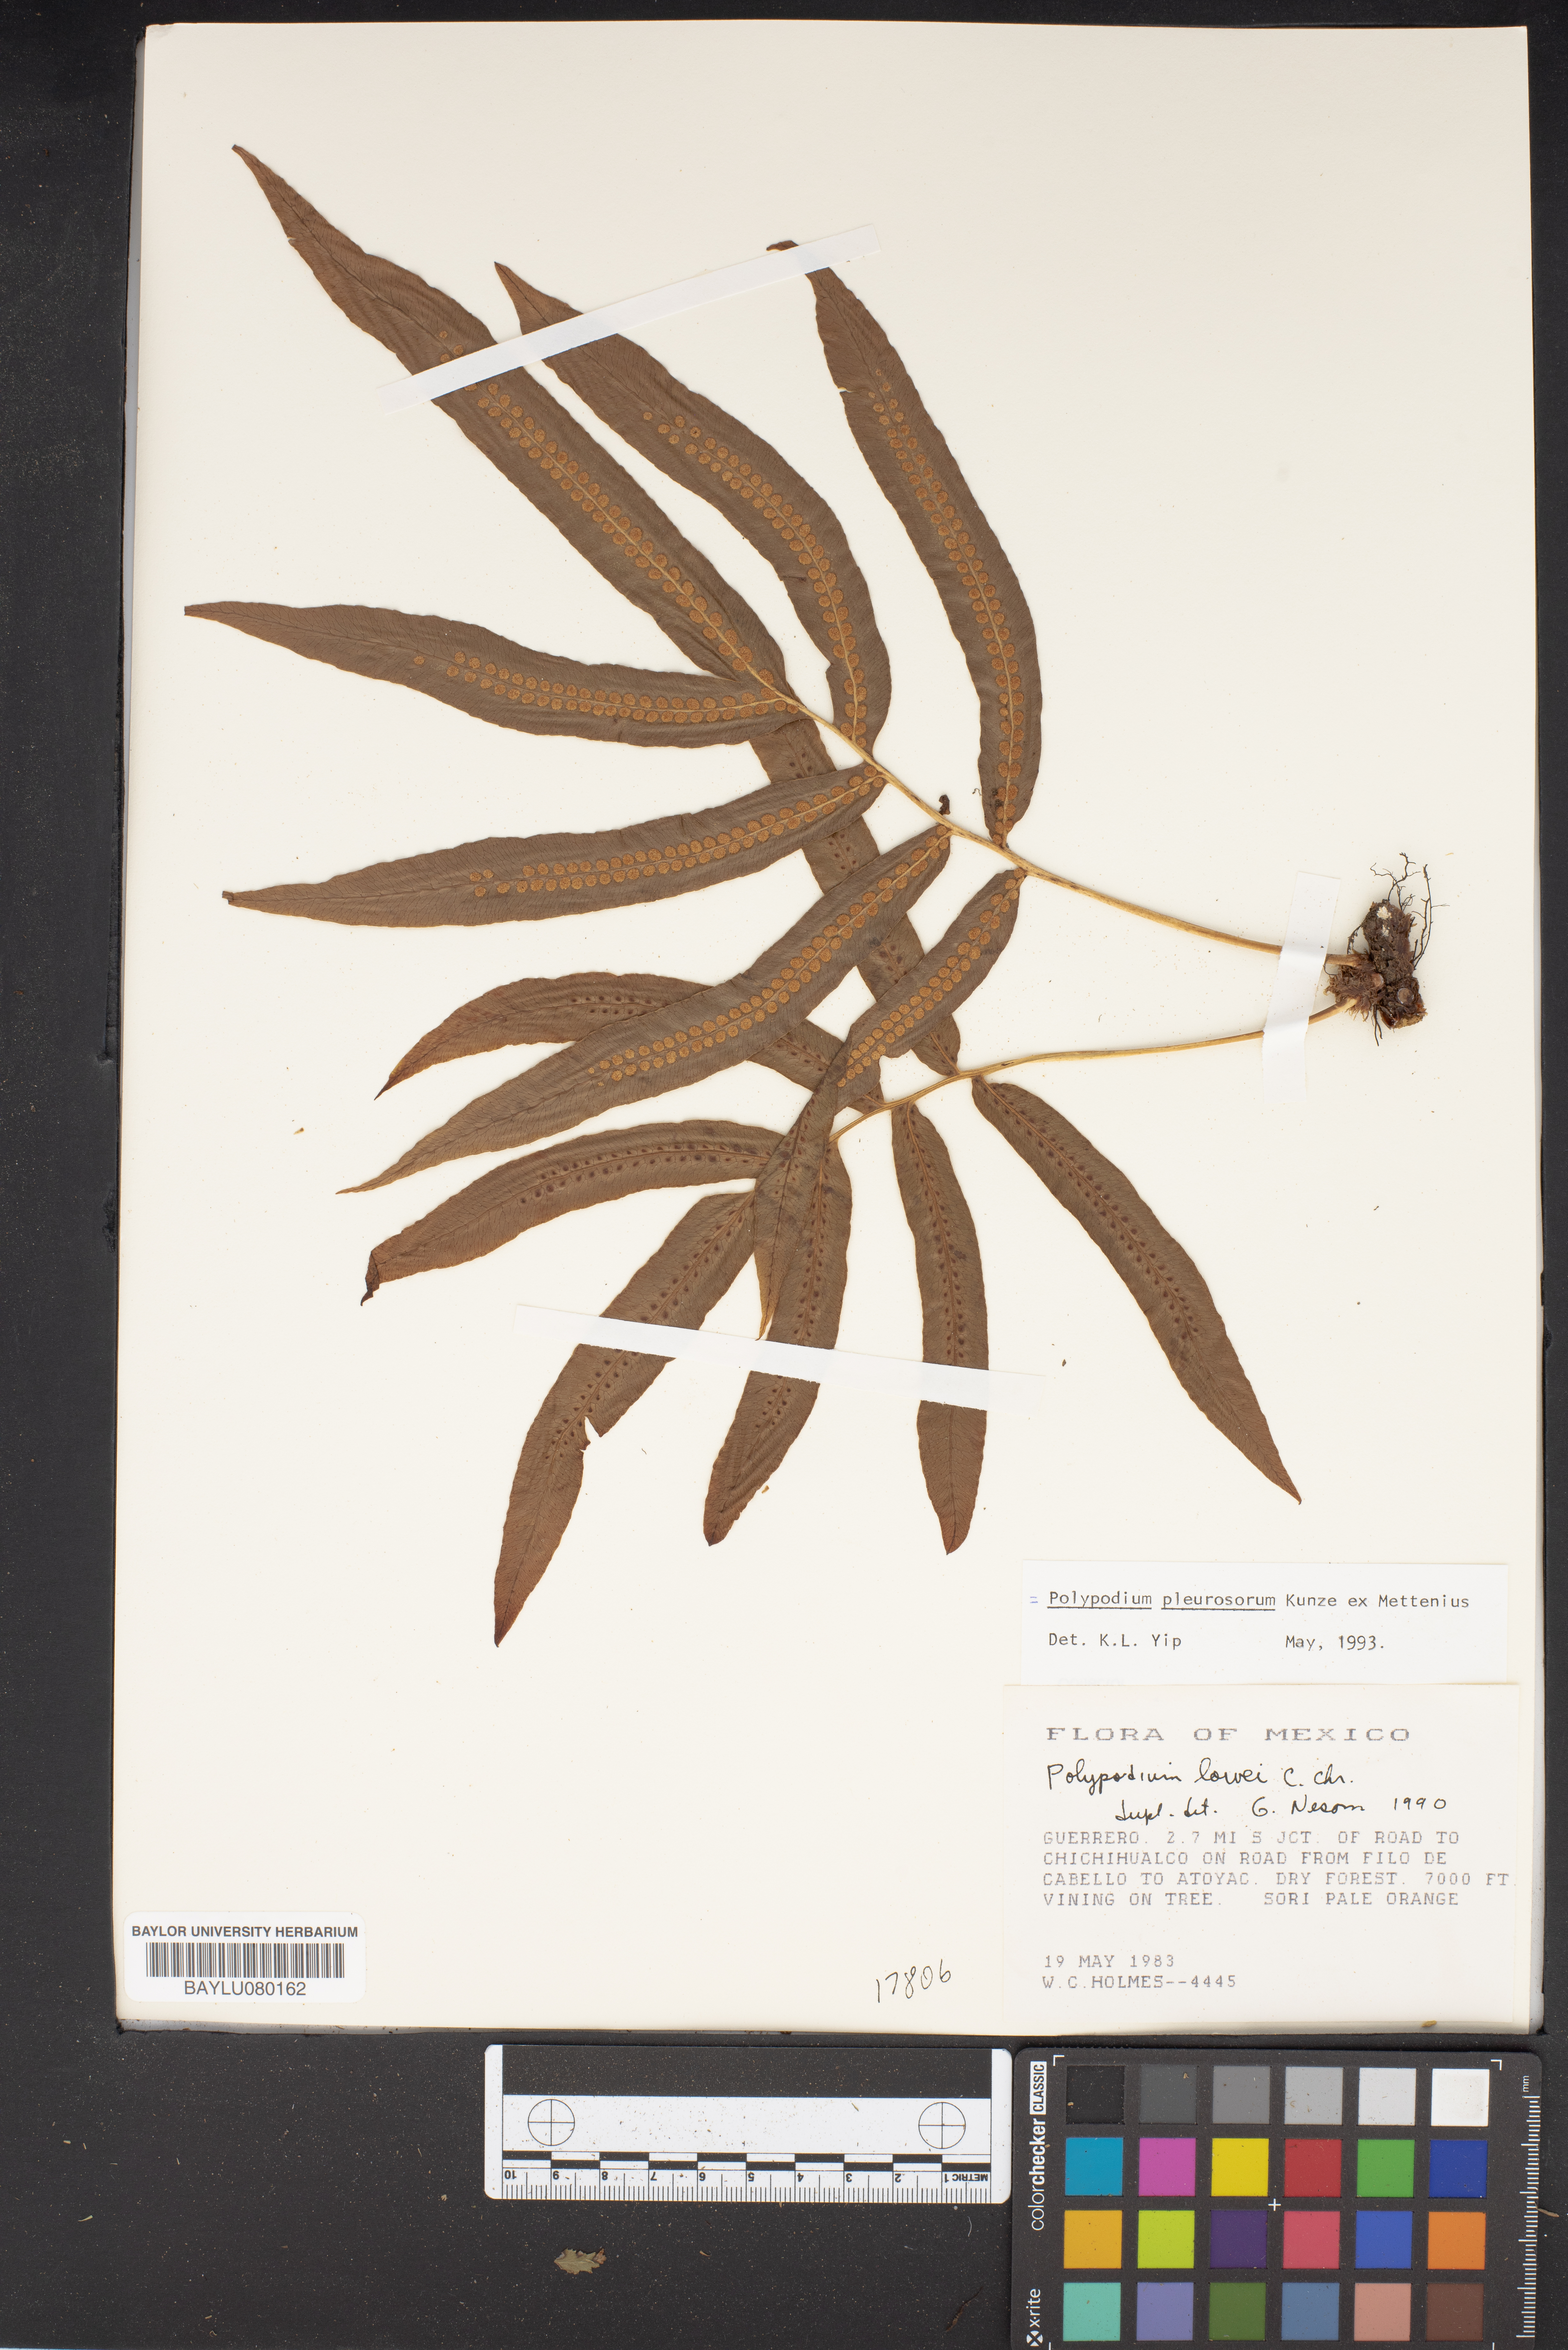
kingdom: Plantae
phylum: Tracheophyta
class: Polypodiopsida
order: Polypodiales
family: Polypodiaceae
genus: Polypodium
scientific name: Polypodium pleurosorum
